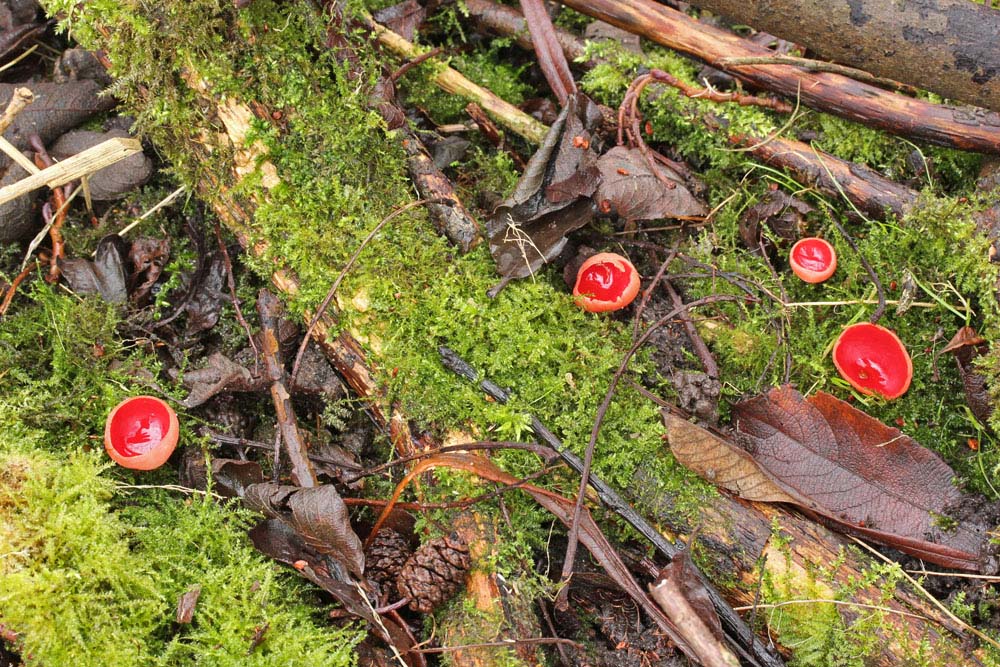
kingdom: Fungi
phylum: Ascomycota
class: Pezizomycetes
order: Pezizales
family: Sarcoscyphaceae
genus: Sarcoscypha
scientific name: Sarcoscypha austriaca
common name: krølhåret pragtbæger
